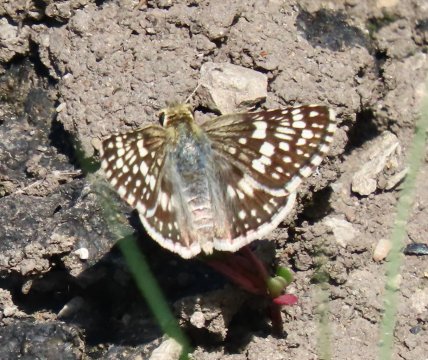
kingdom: Animalia
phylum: Arthropoda
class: Insecta
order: Lepidoptera
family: Hesperiidae
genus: Pyrgus
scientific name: Pyrgus communis
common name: Common Checkered-Skipper
